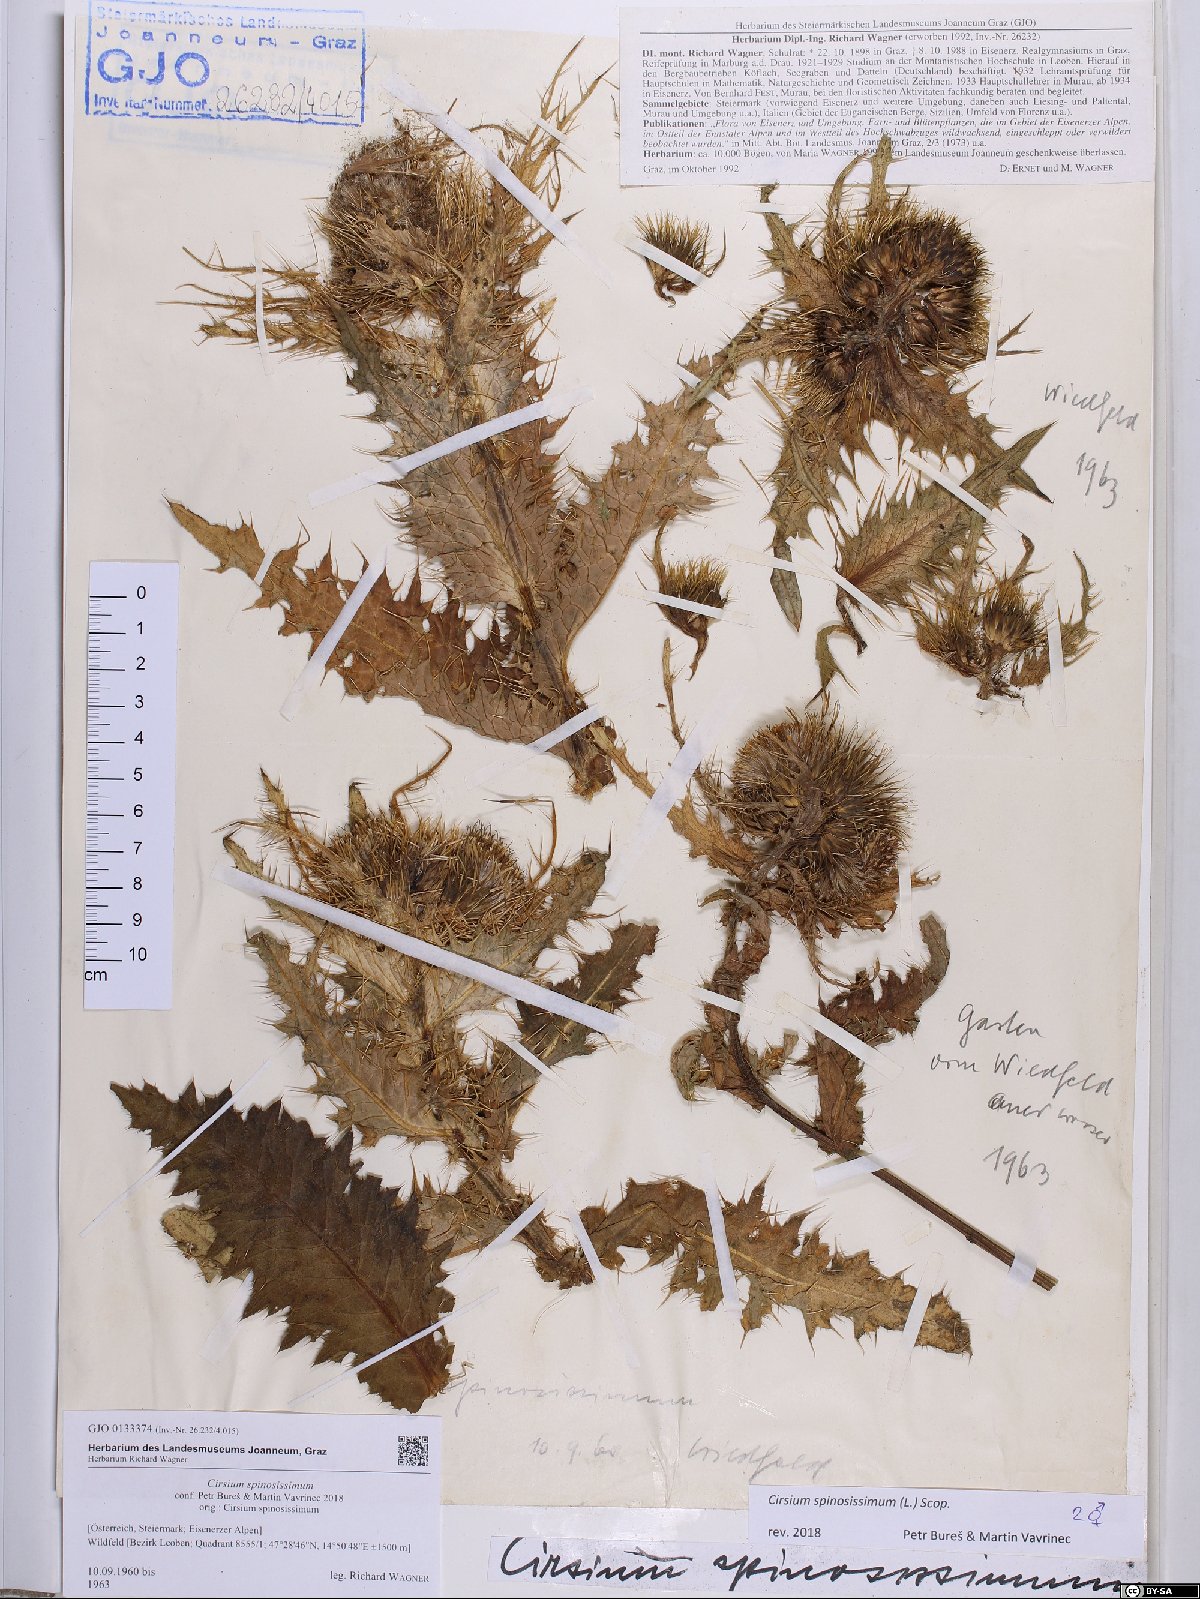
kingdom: Plantae
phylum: Tracheophyta
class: Magnoliopsida
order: Asterales
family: Asteraceae
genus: Cirsium
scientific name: Cirsium spinosissimum
